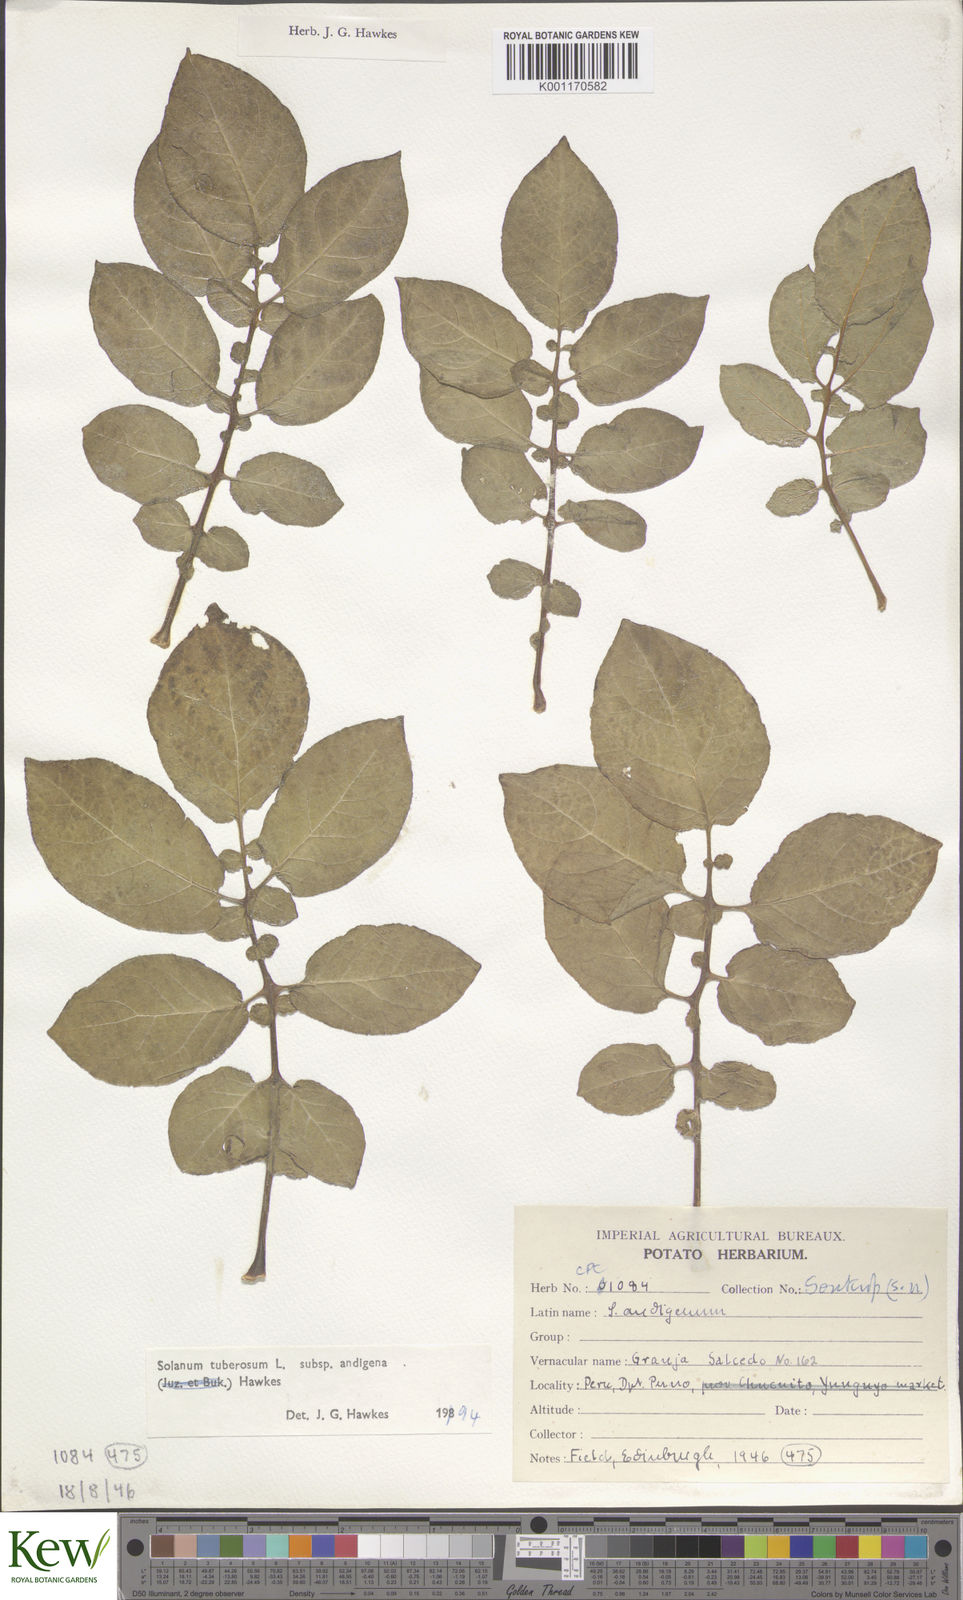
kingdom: Plantae
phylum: Tracheophyta
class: Magnoliopsida
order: Solanales
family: Solanaceae
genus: Solanum
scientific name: Solanum tuberosum
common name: Potato
